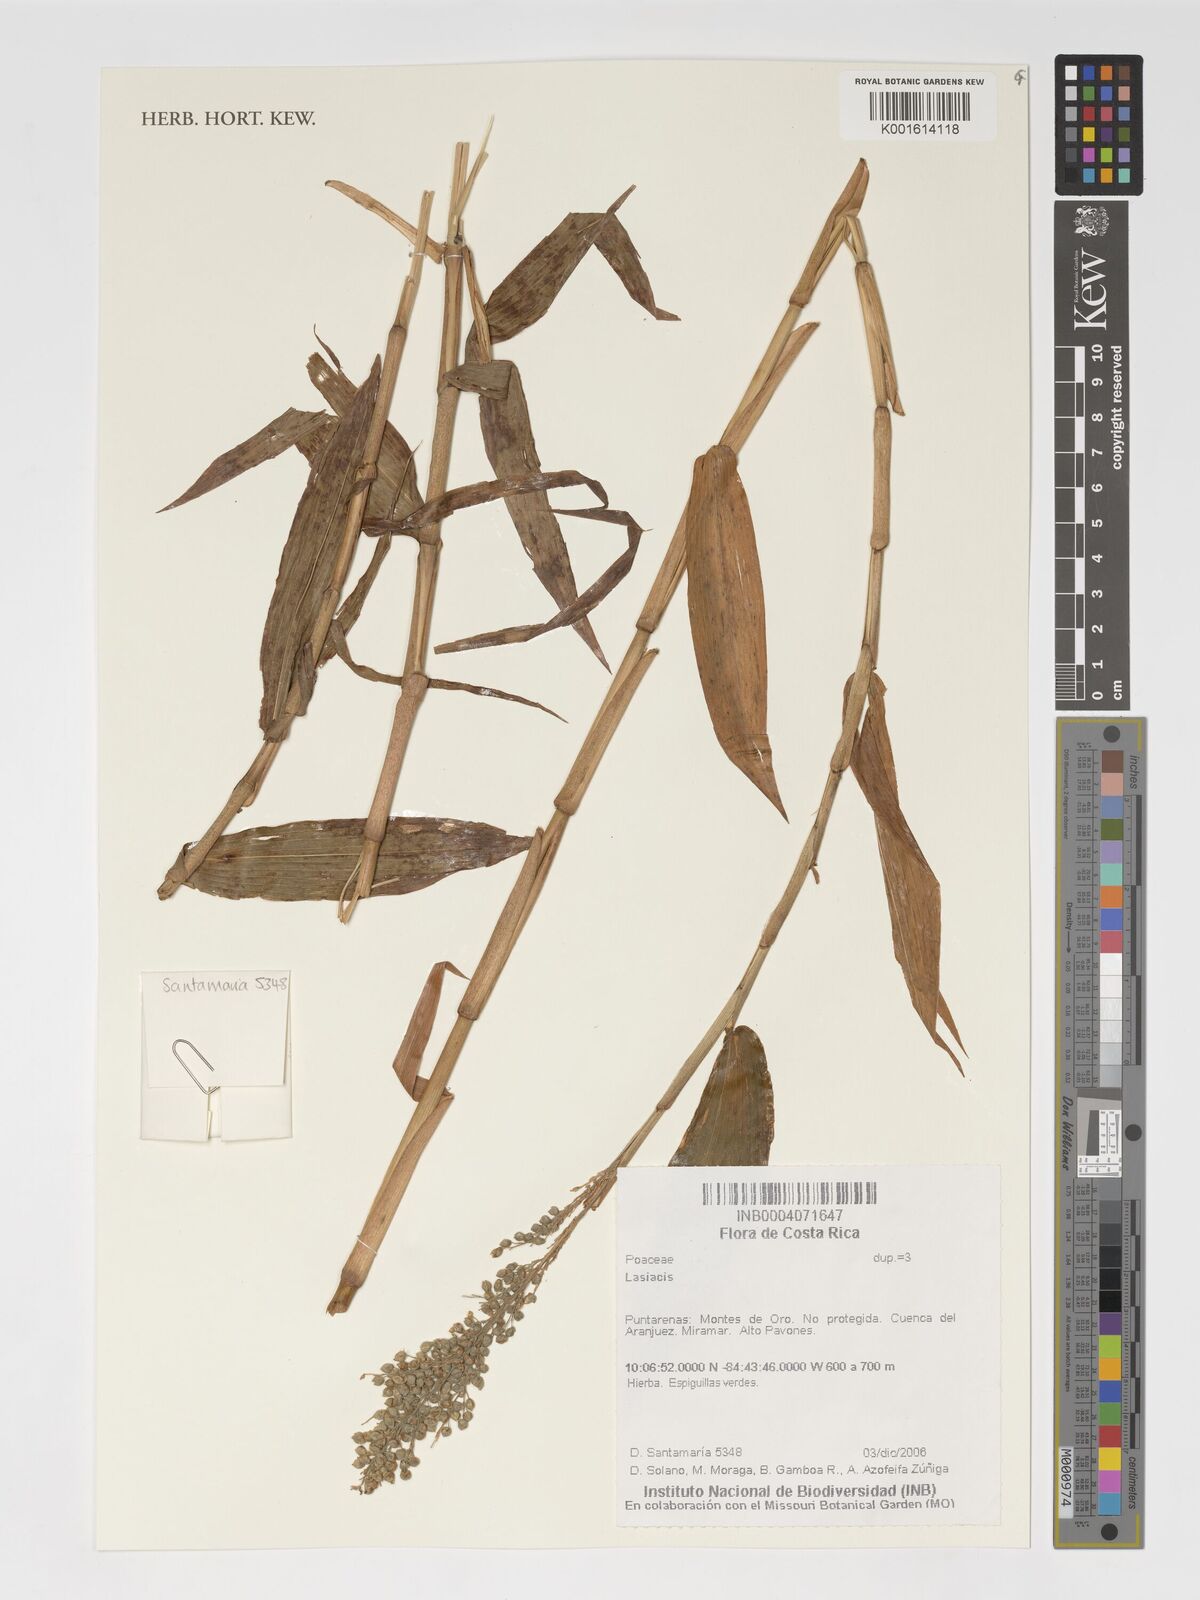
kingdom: Plantae
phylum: Tracheophyta
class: Liliopsida
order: Poales
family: Poaceae
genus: Lasiacis
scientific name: Lasiacis
